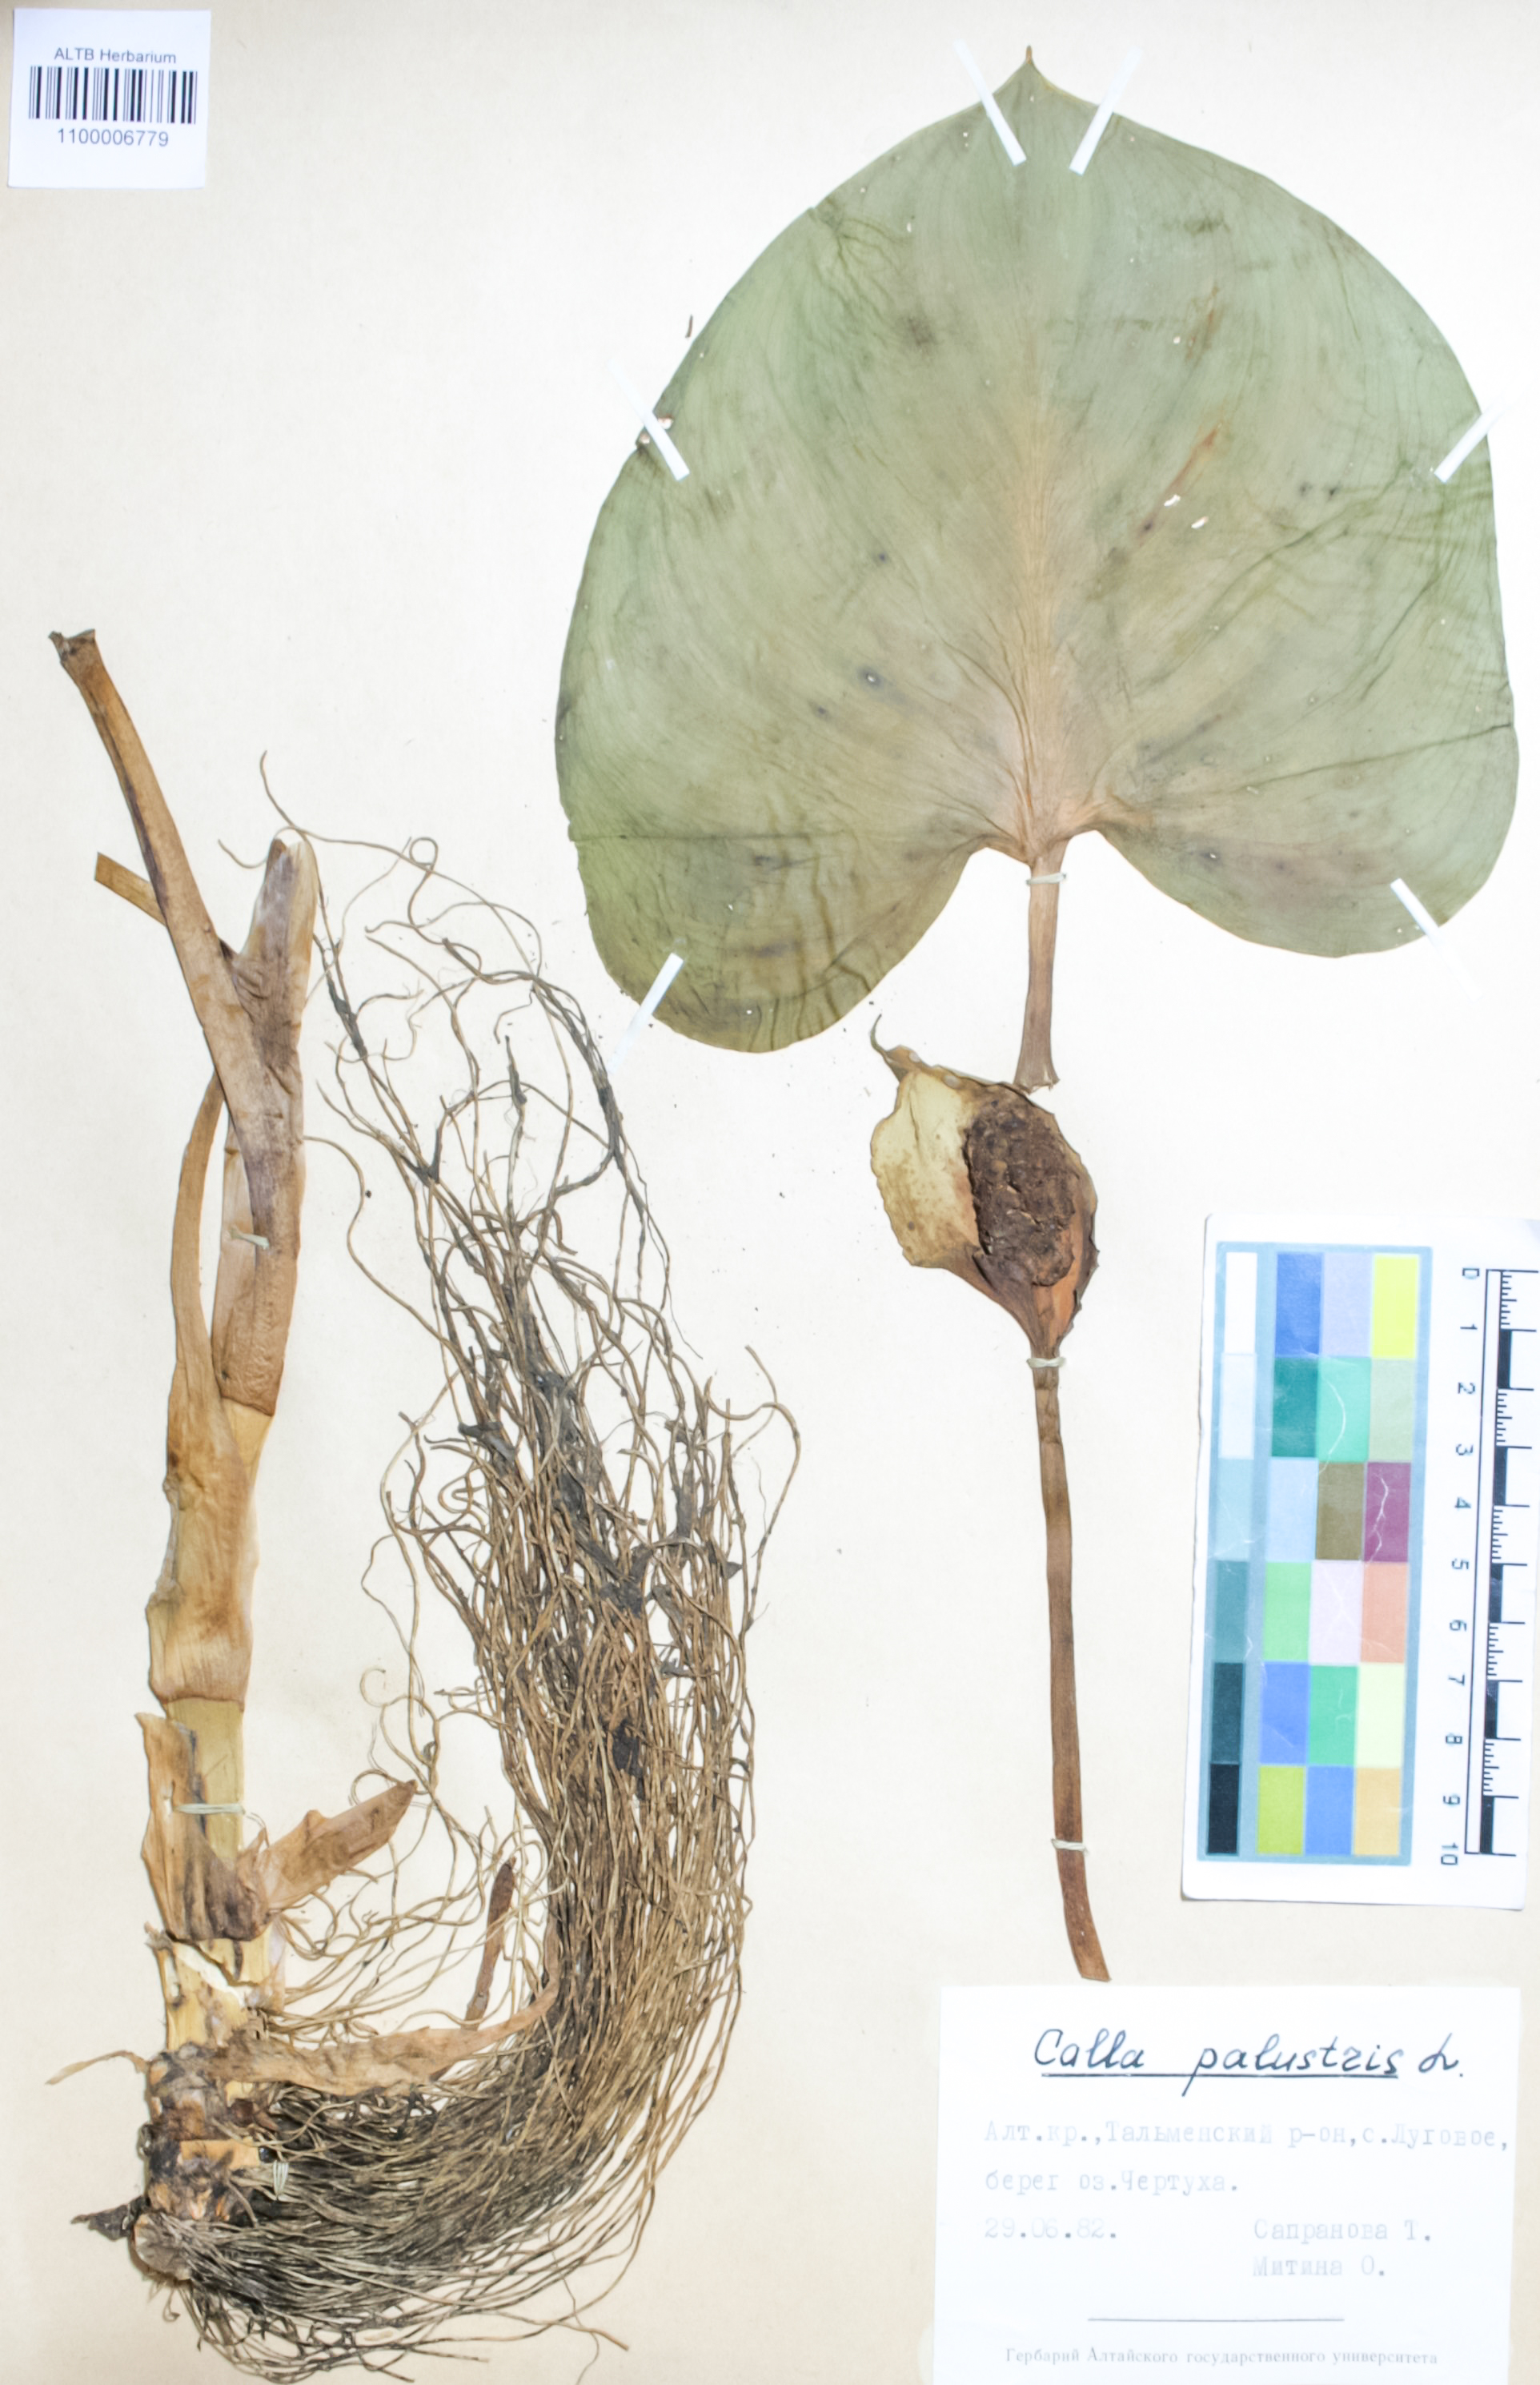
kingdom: Plantae
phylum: Tracheophyta
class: Liliopsida
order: Alismatales
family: Araceae
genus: Calla
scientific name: Calla palustris
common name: Bog arum
